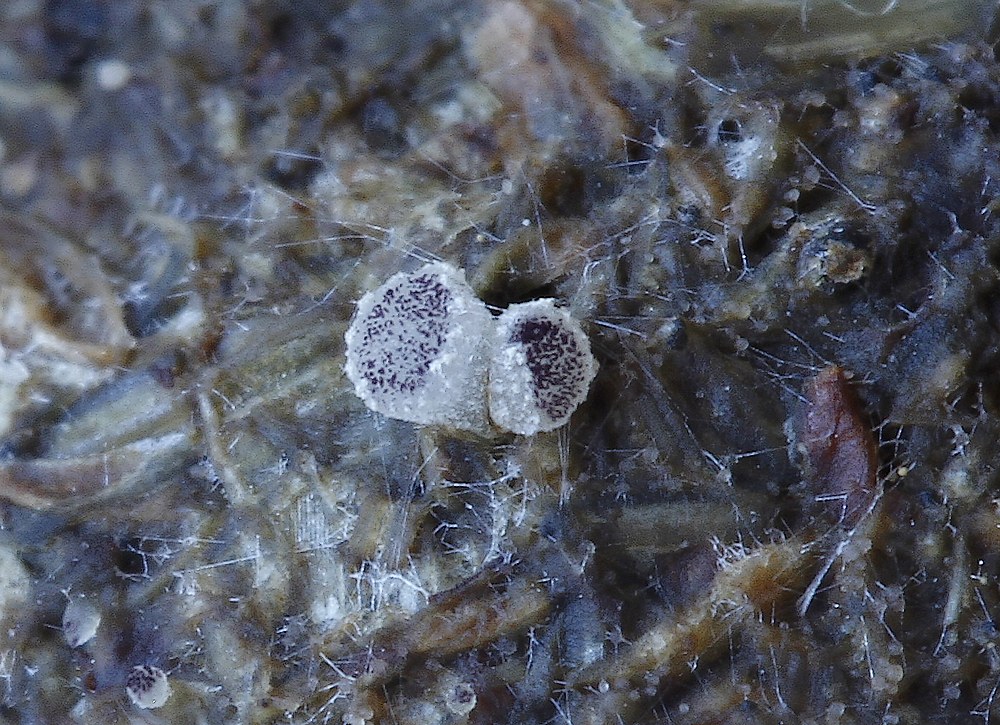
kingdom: Fungi
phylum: Ascomycota
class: Pezizomycetes
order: Pezizales
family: Ascobolaceae
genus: Ascobolus
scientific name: Ascobolus sacchariferus
